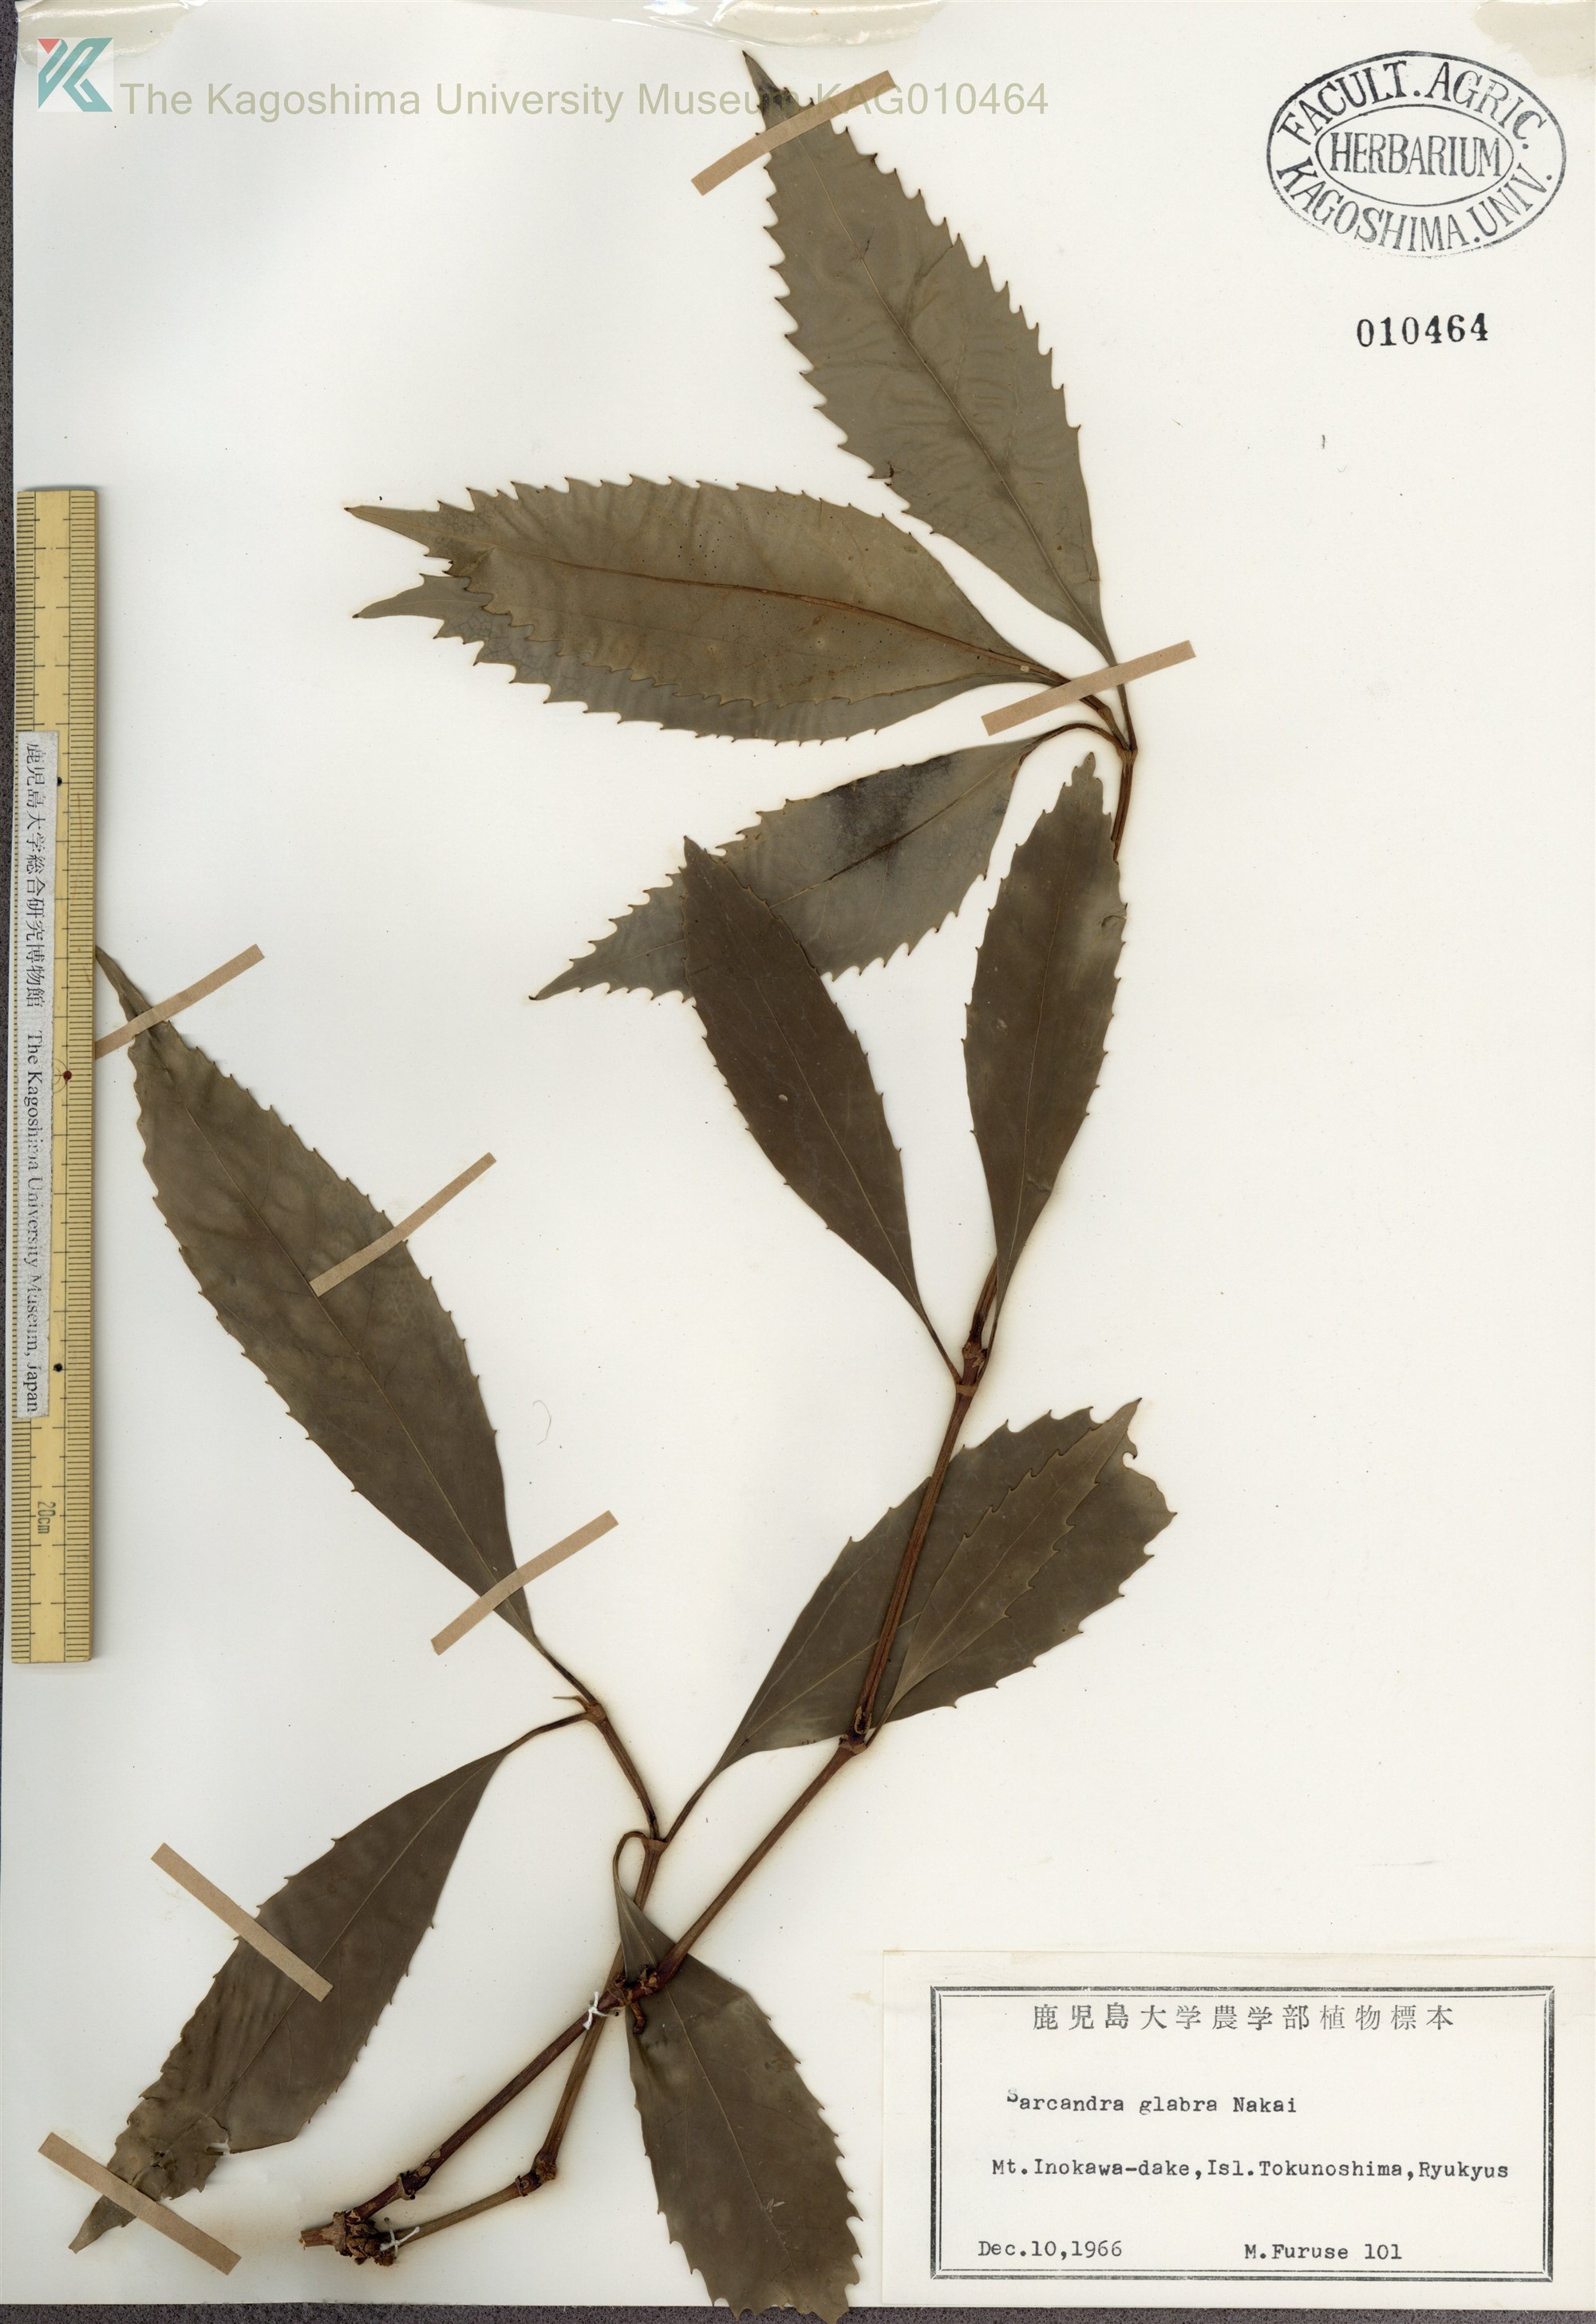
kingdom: Plantae
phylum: Tracheophyta
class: Magnoliopsida
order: Chloranthales
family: Chloranthaceae
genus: Sarcandra
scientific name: Sarcandra glabra
